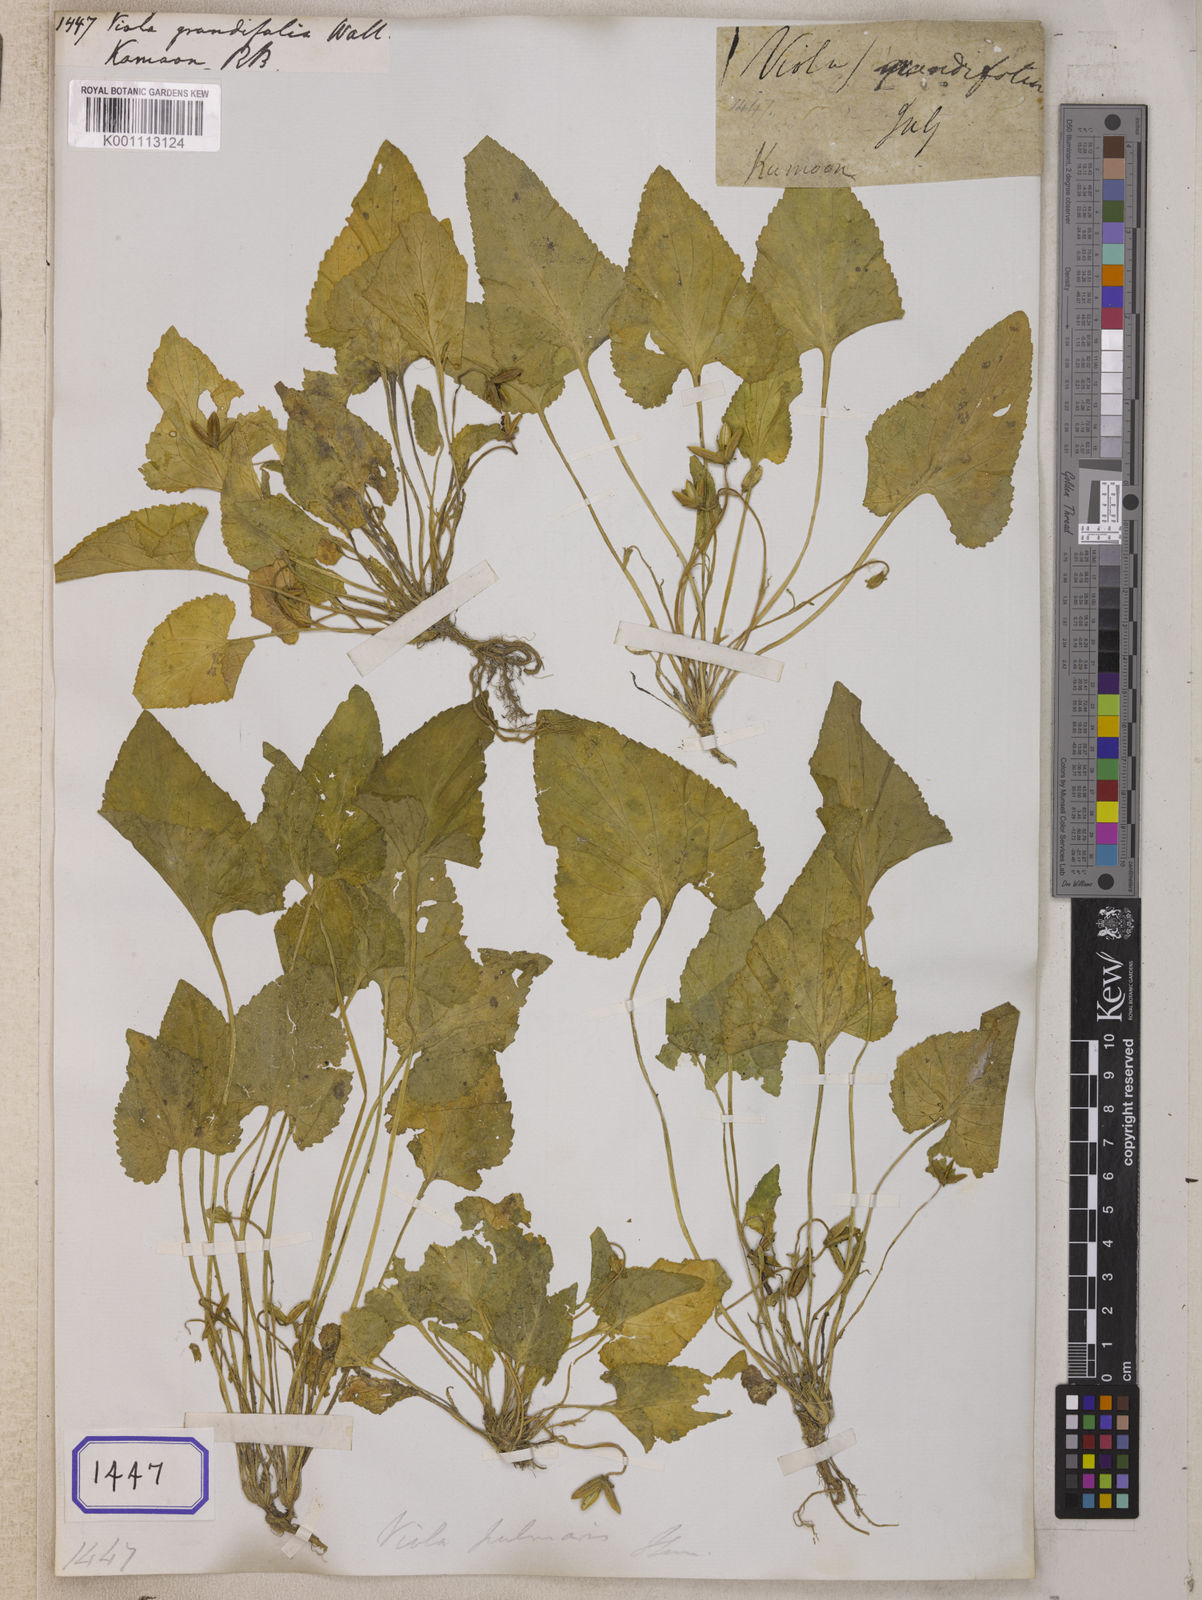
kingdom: Plantae
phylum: Tracheophyta
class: Magnoliopsida
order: Malpighiales
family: Violaceae
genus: Viola
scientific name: Viola patrinii
